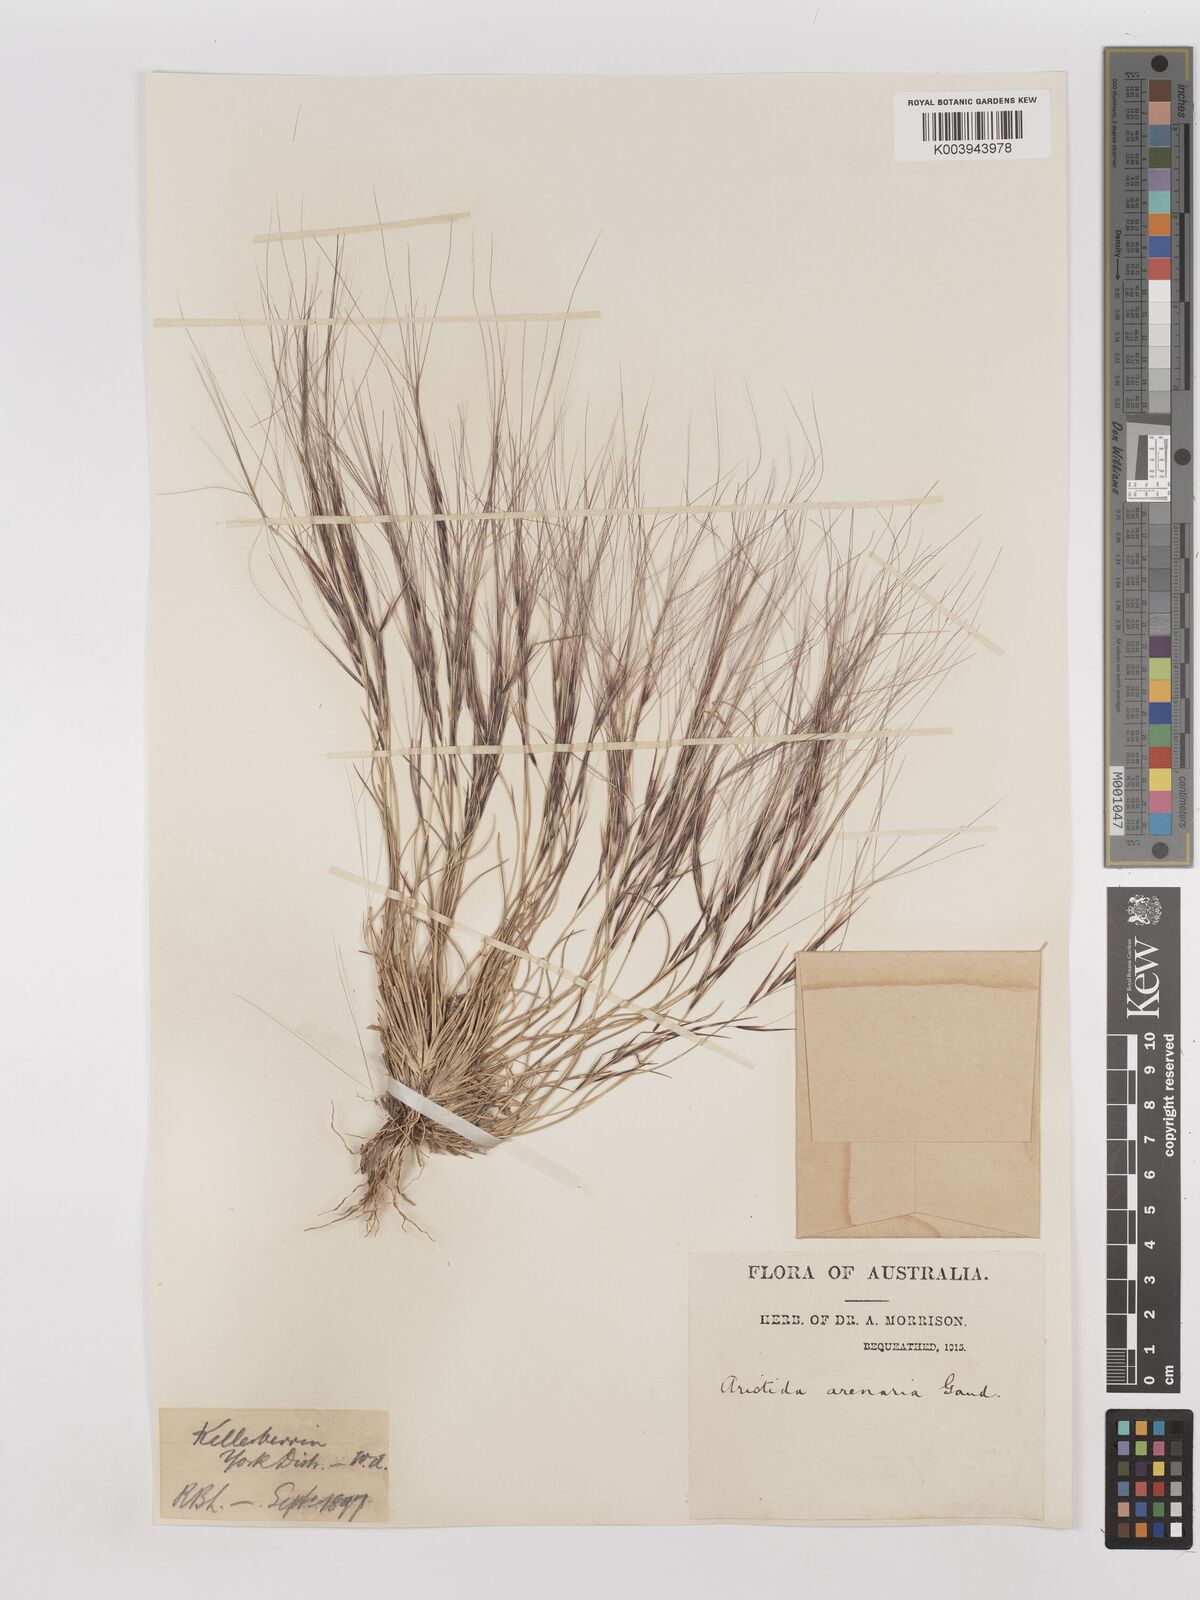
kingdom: Plantae
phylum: Tracheophyta
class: Liliopsida
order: Poales
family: Poaceae
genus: Aristida
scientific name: Aristida contorta
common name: Bunch kerosene grass
